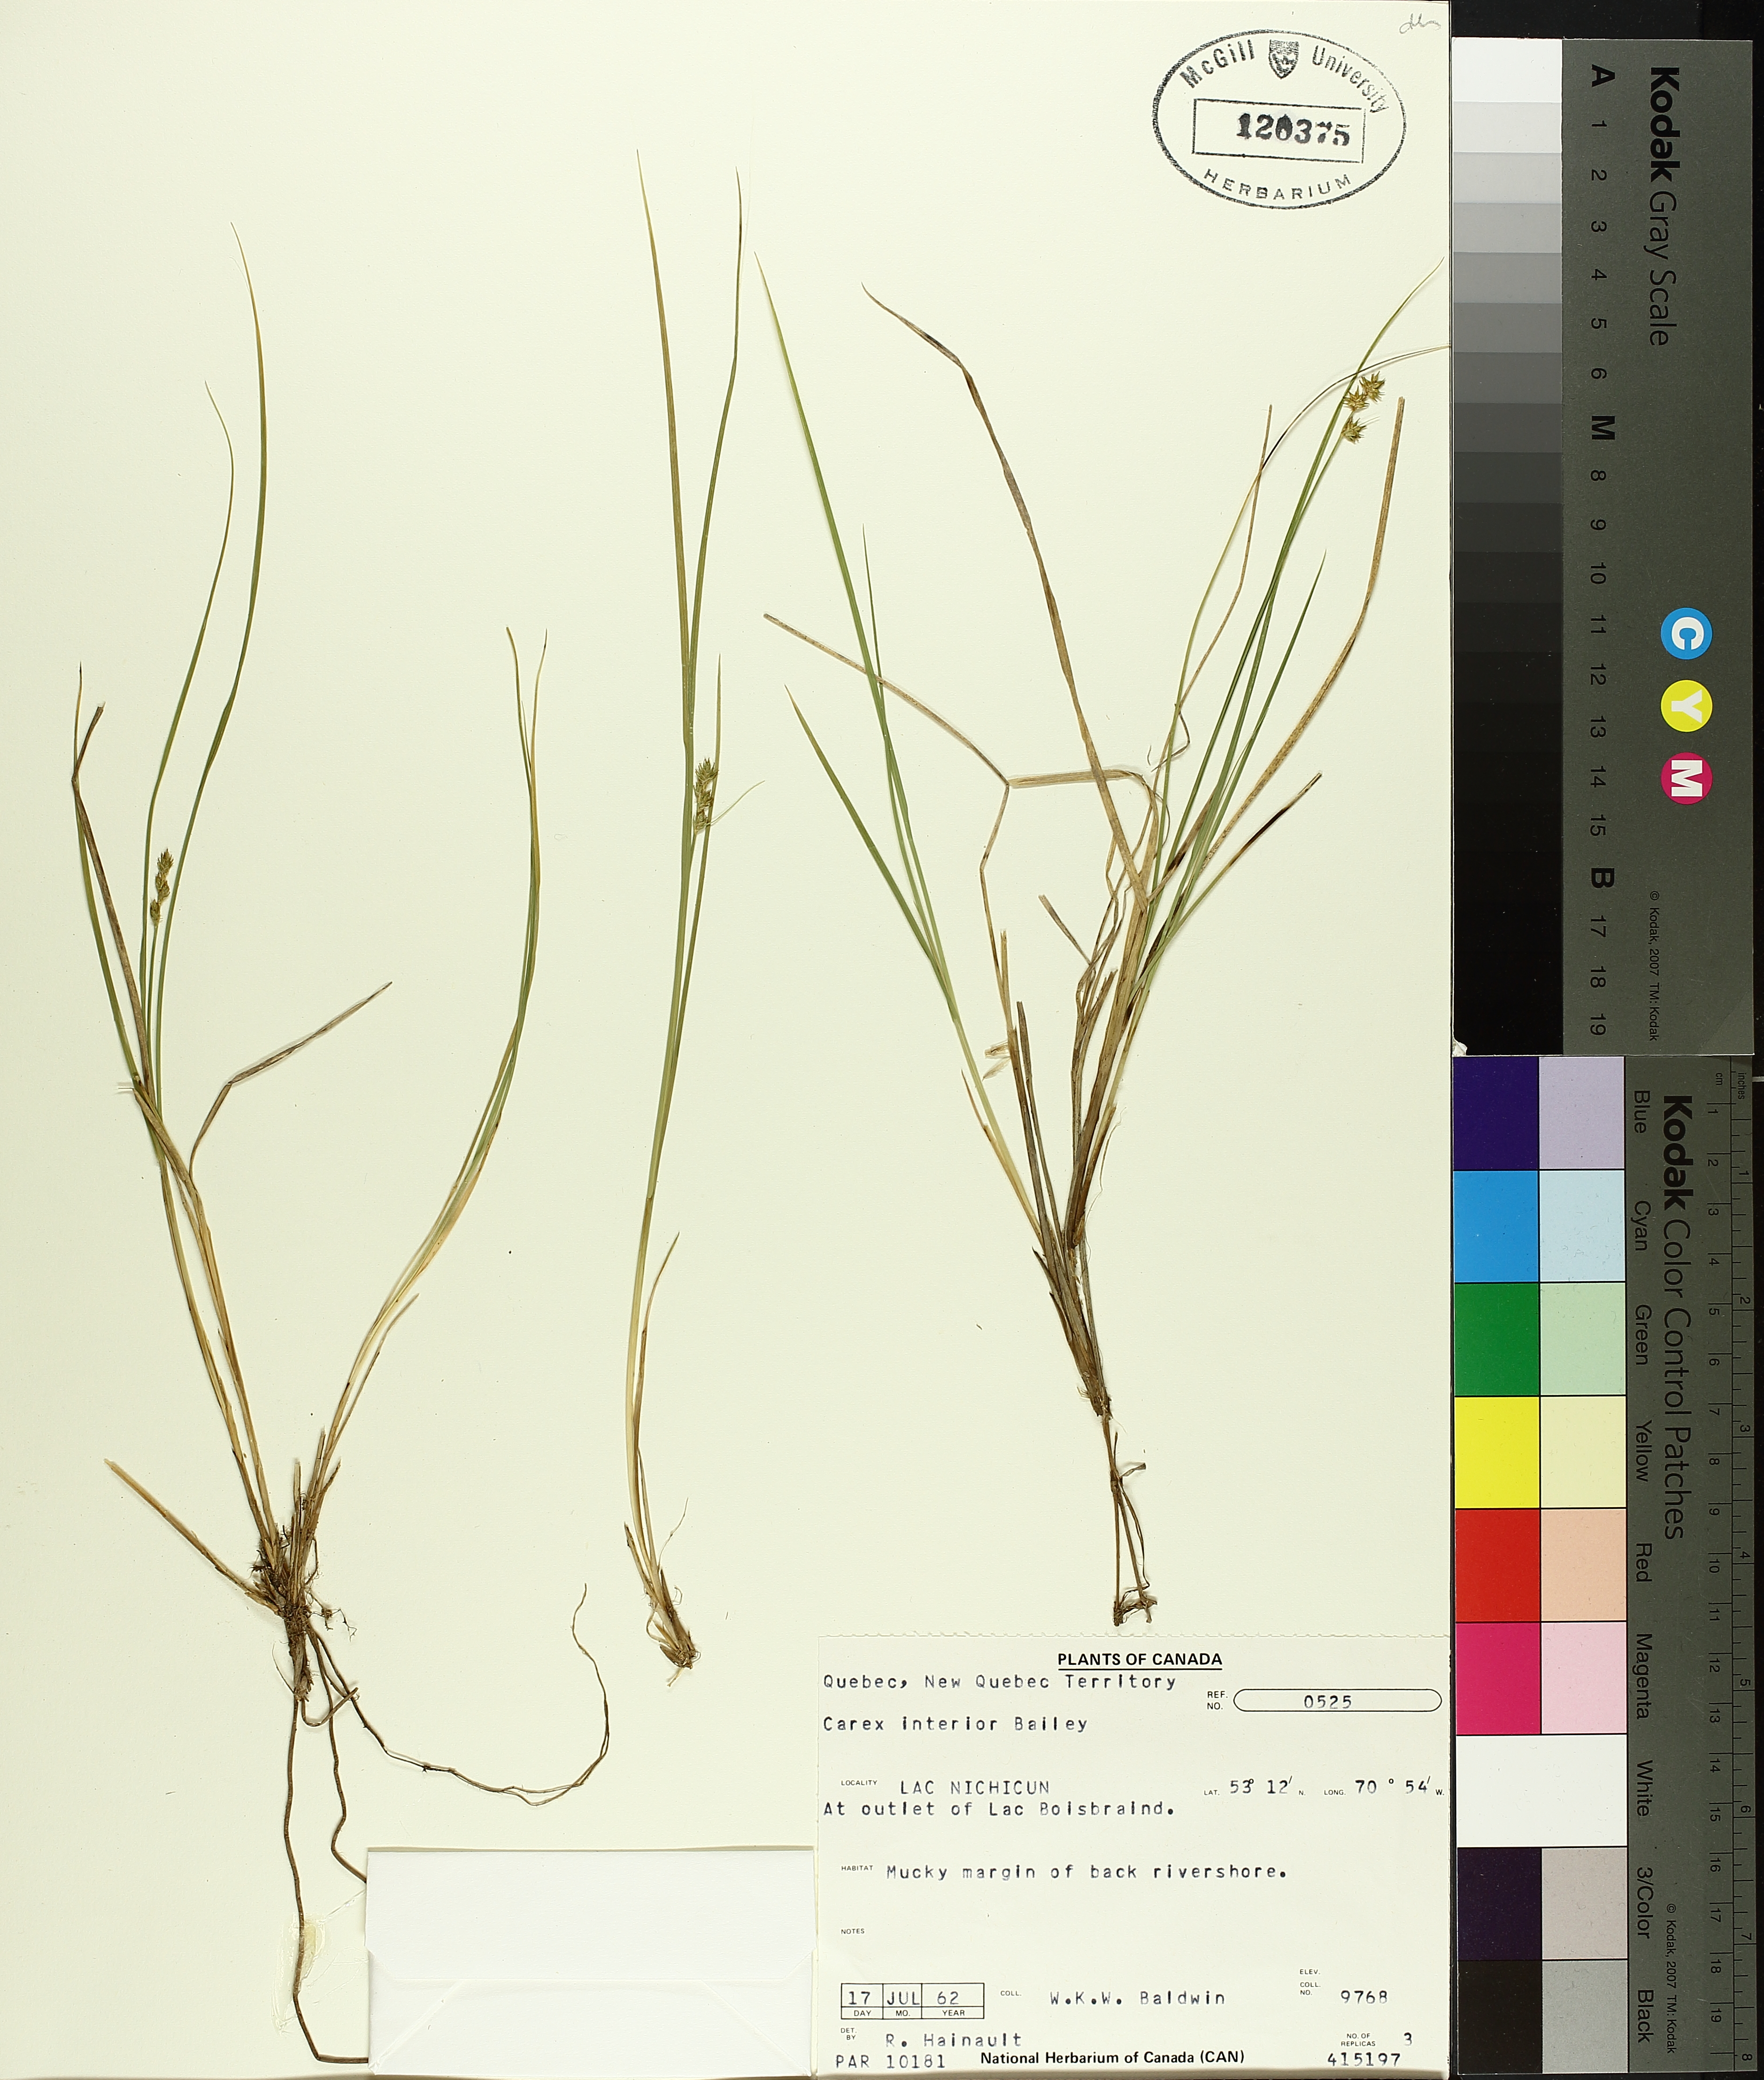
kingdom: Plantae
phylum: Tracheophyta
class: Liliopsida
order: Poales
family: Cyperaceae
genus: Carex
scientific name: Carex interior
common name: Inland sedge
